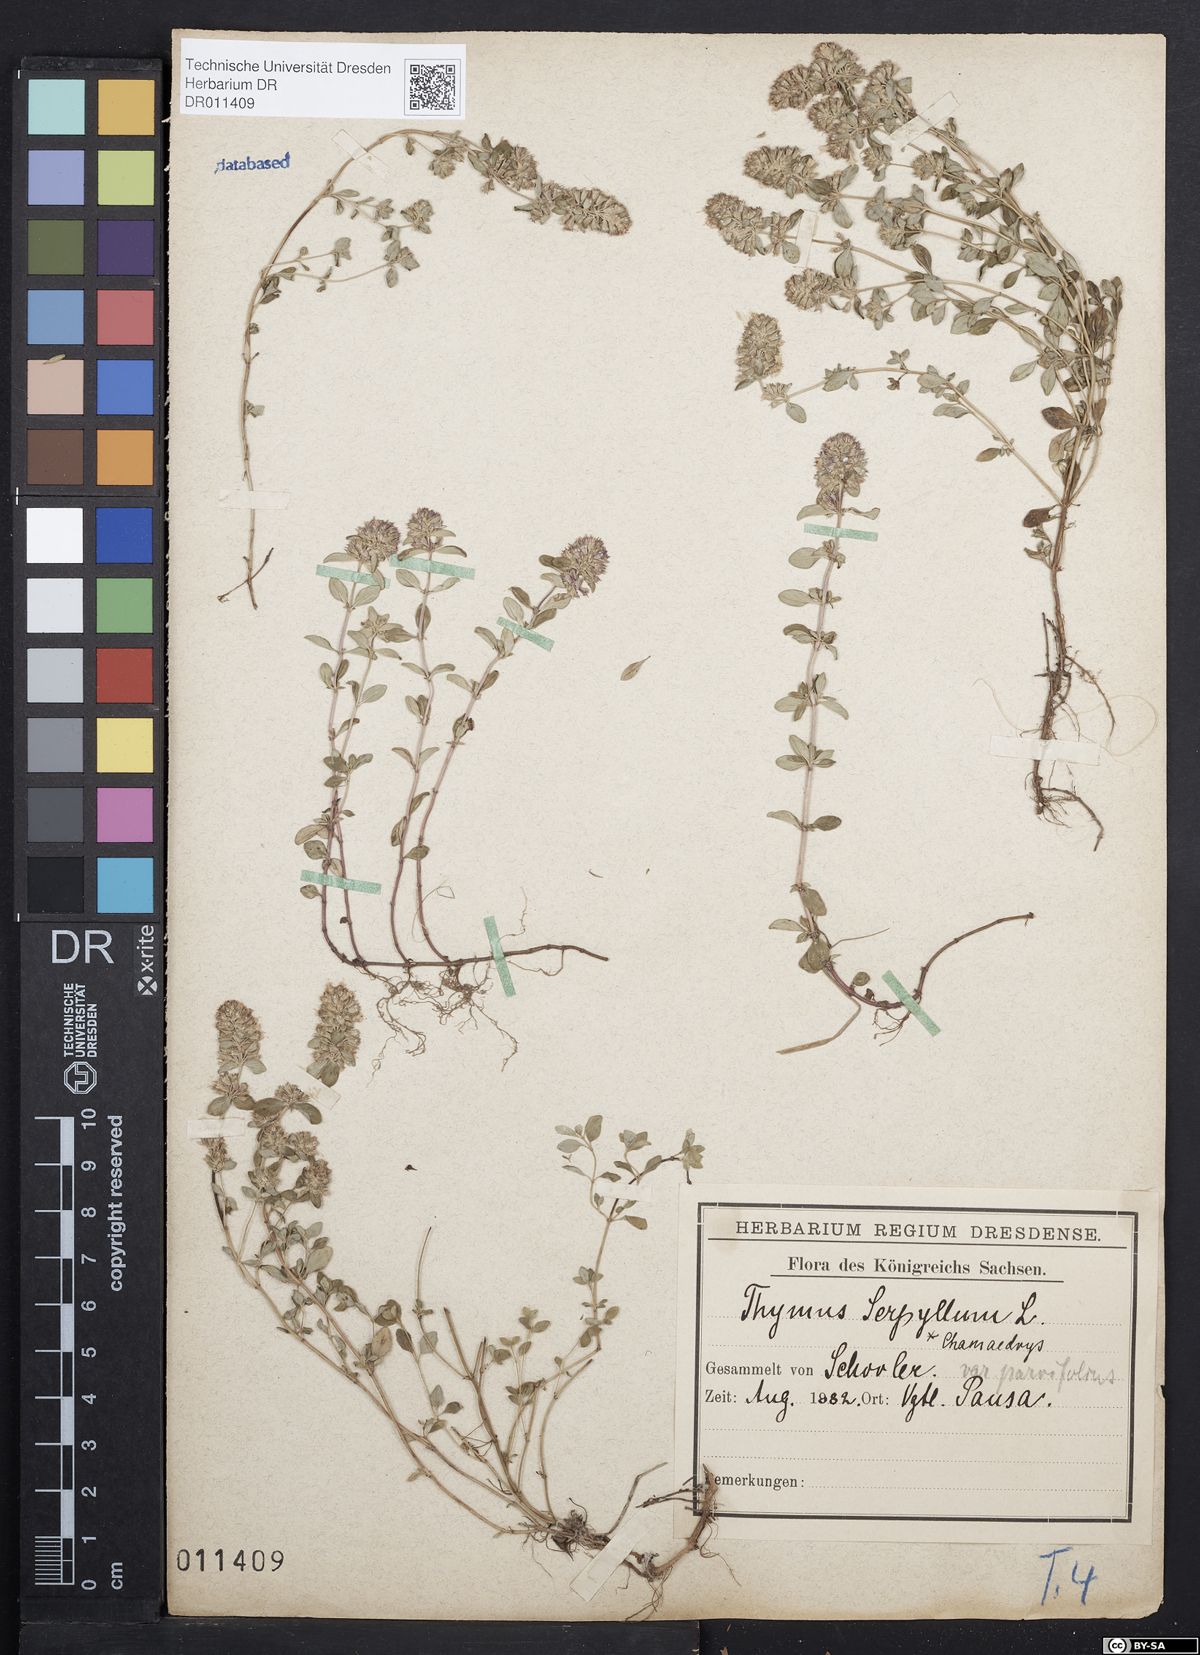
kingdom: Plantae
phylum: Tracheophyta
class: Magnoliopsida
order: Lamiales
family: Lamiaceae
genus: Thymus
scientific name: Thymus pulegioides
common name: Large thyme
